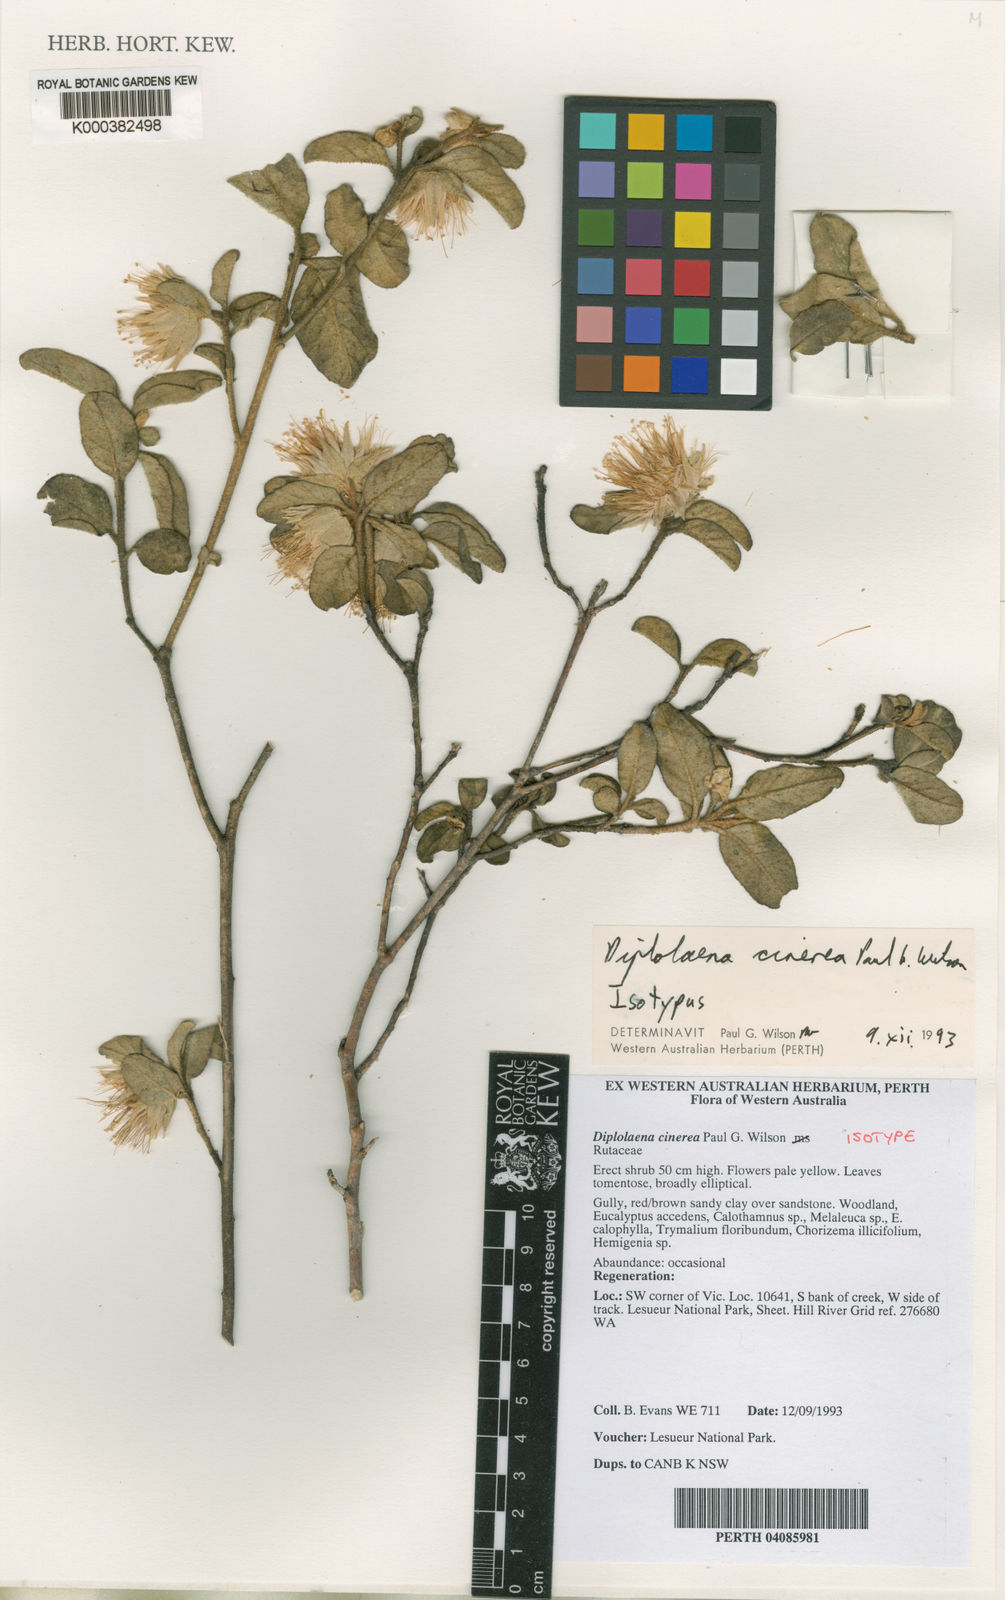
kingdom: Plantae
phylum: Tracheophyta
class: Magnoliopsida
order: Sapindales
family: Rutaceae
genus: Diplolaena
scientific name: Diplolaena cinerea
